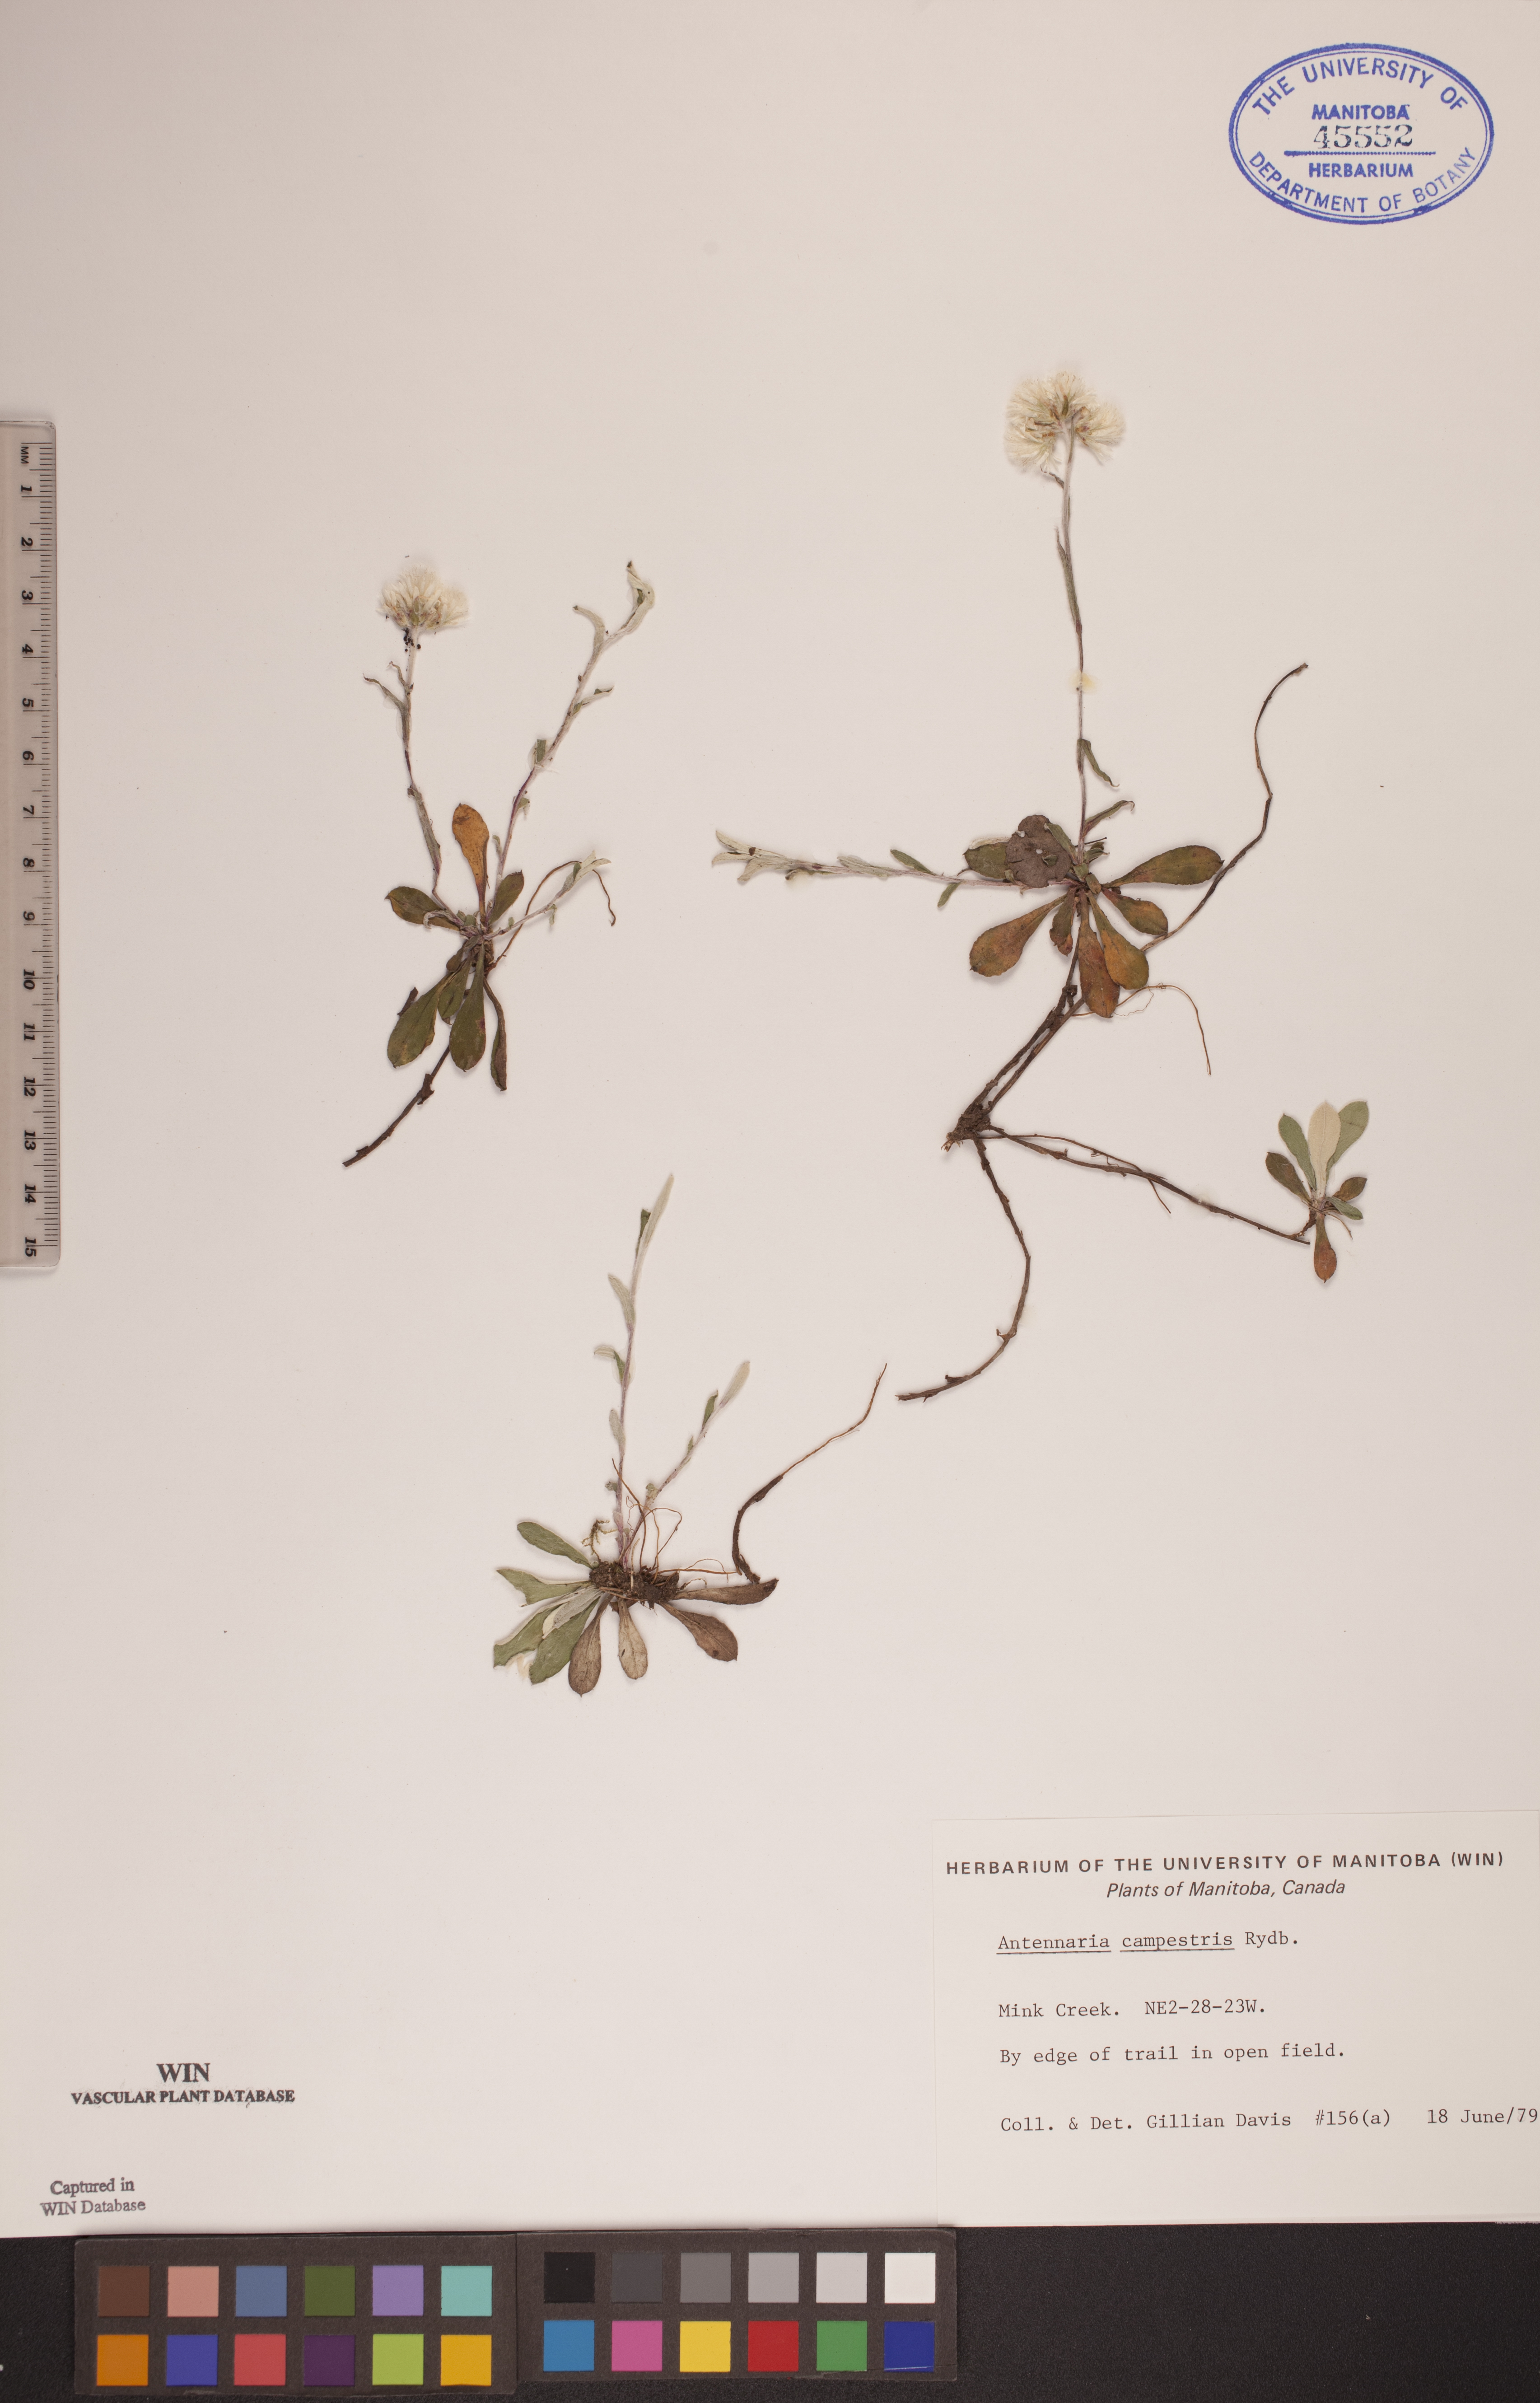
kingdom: Plantae
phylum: Tracheophyta
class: Magnoliopsida
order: Asterales
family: Asteraceae
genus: Antennaria
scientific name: Antennaria neglecta
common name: Field pussytoes
